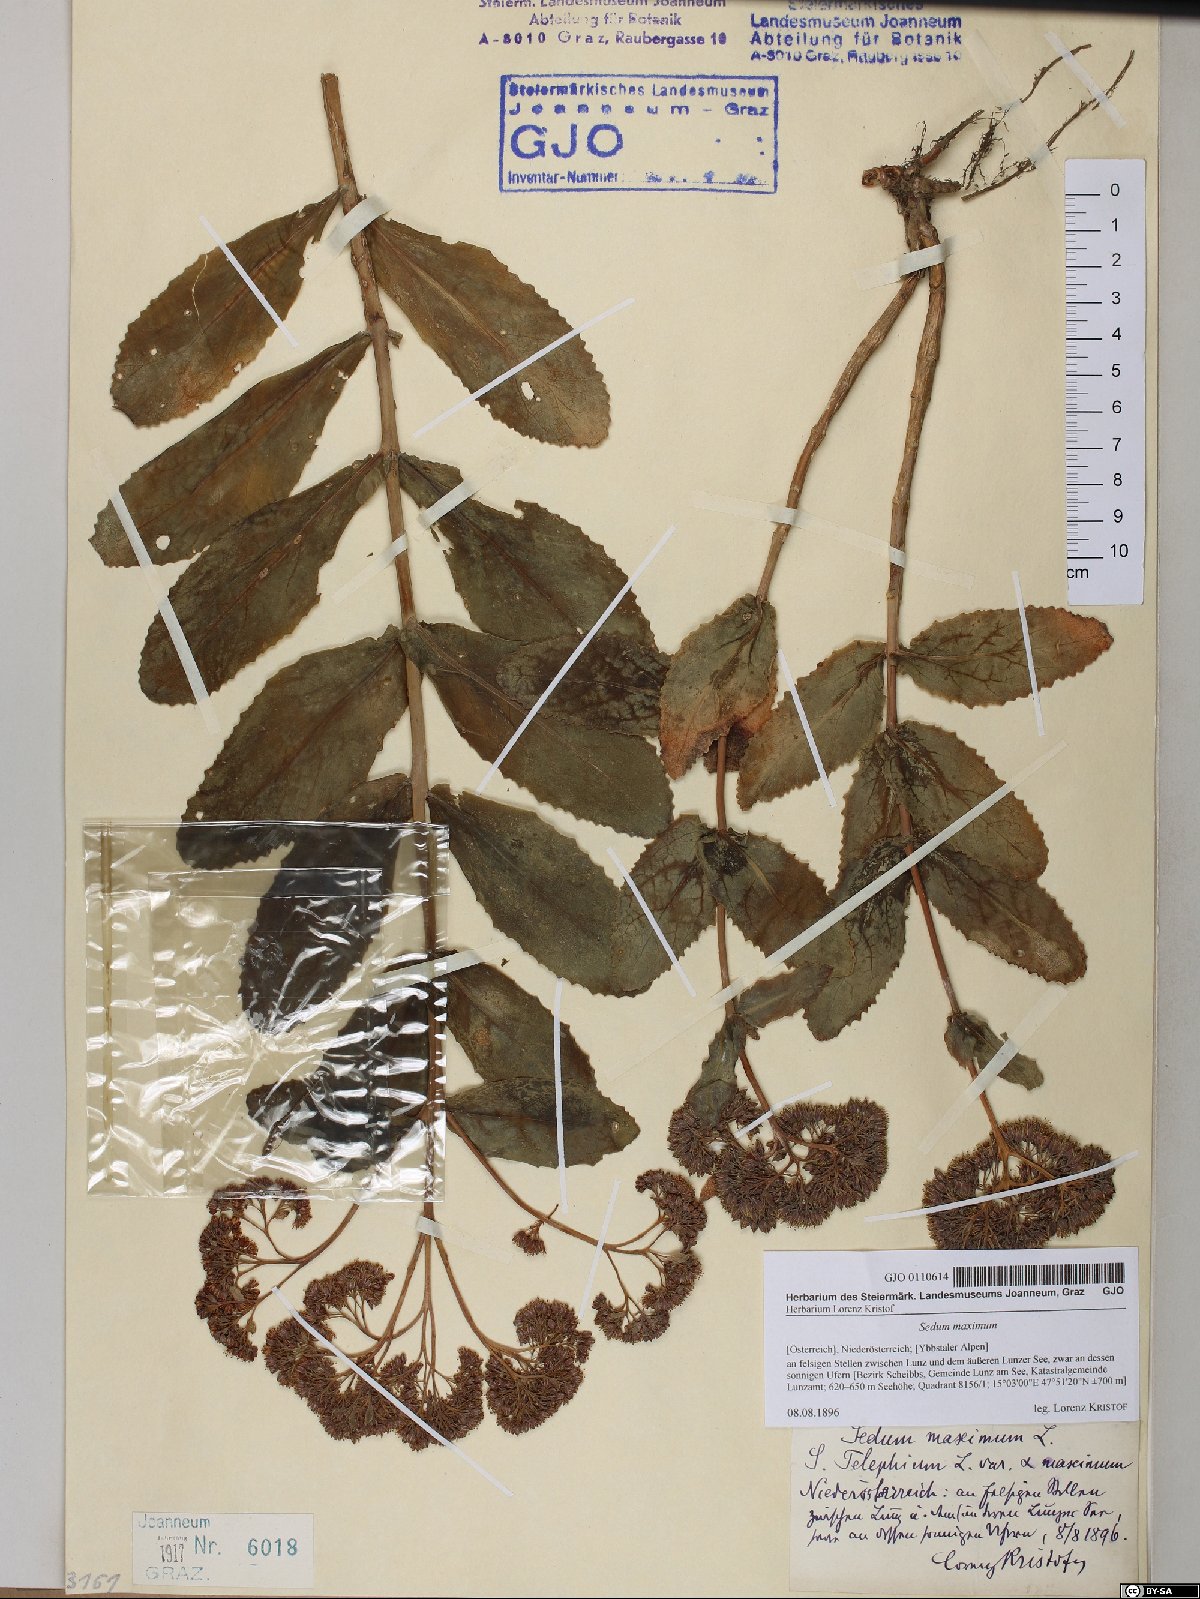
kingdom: Plantae
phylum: Tracheophyta
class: Magnoliopsida
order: Saxifragales
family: Crassulaceae
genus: Hylotelephium
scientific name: Hylotelephium maximum
